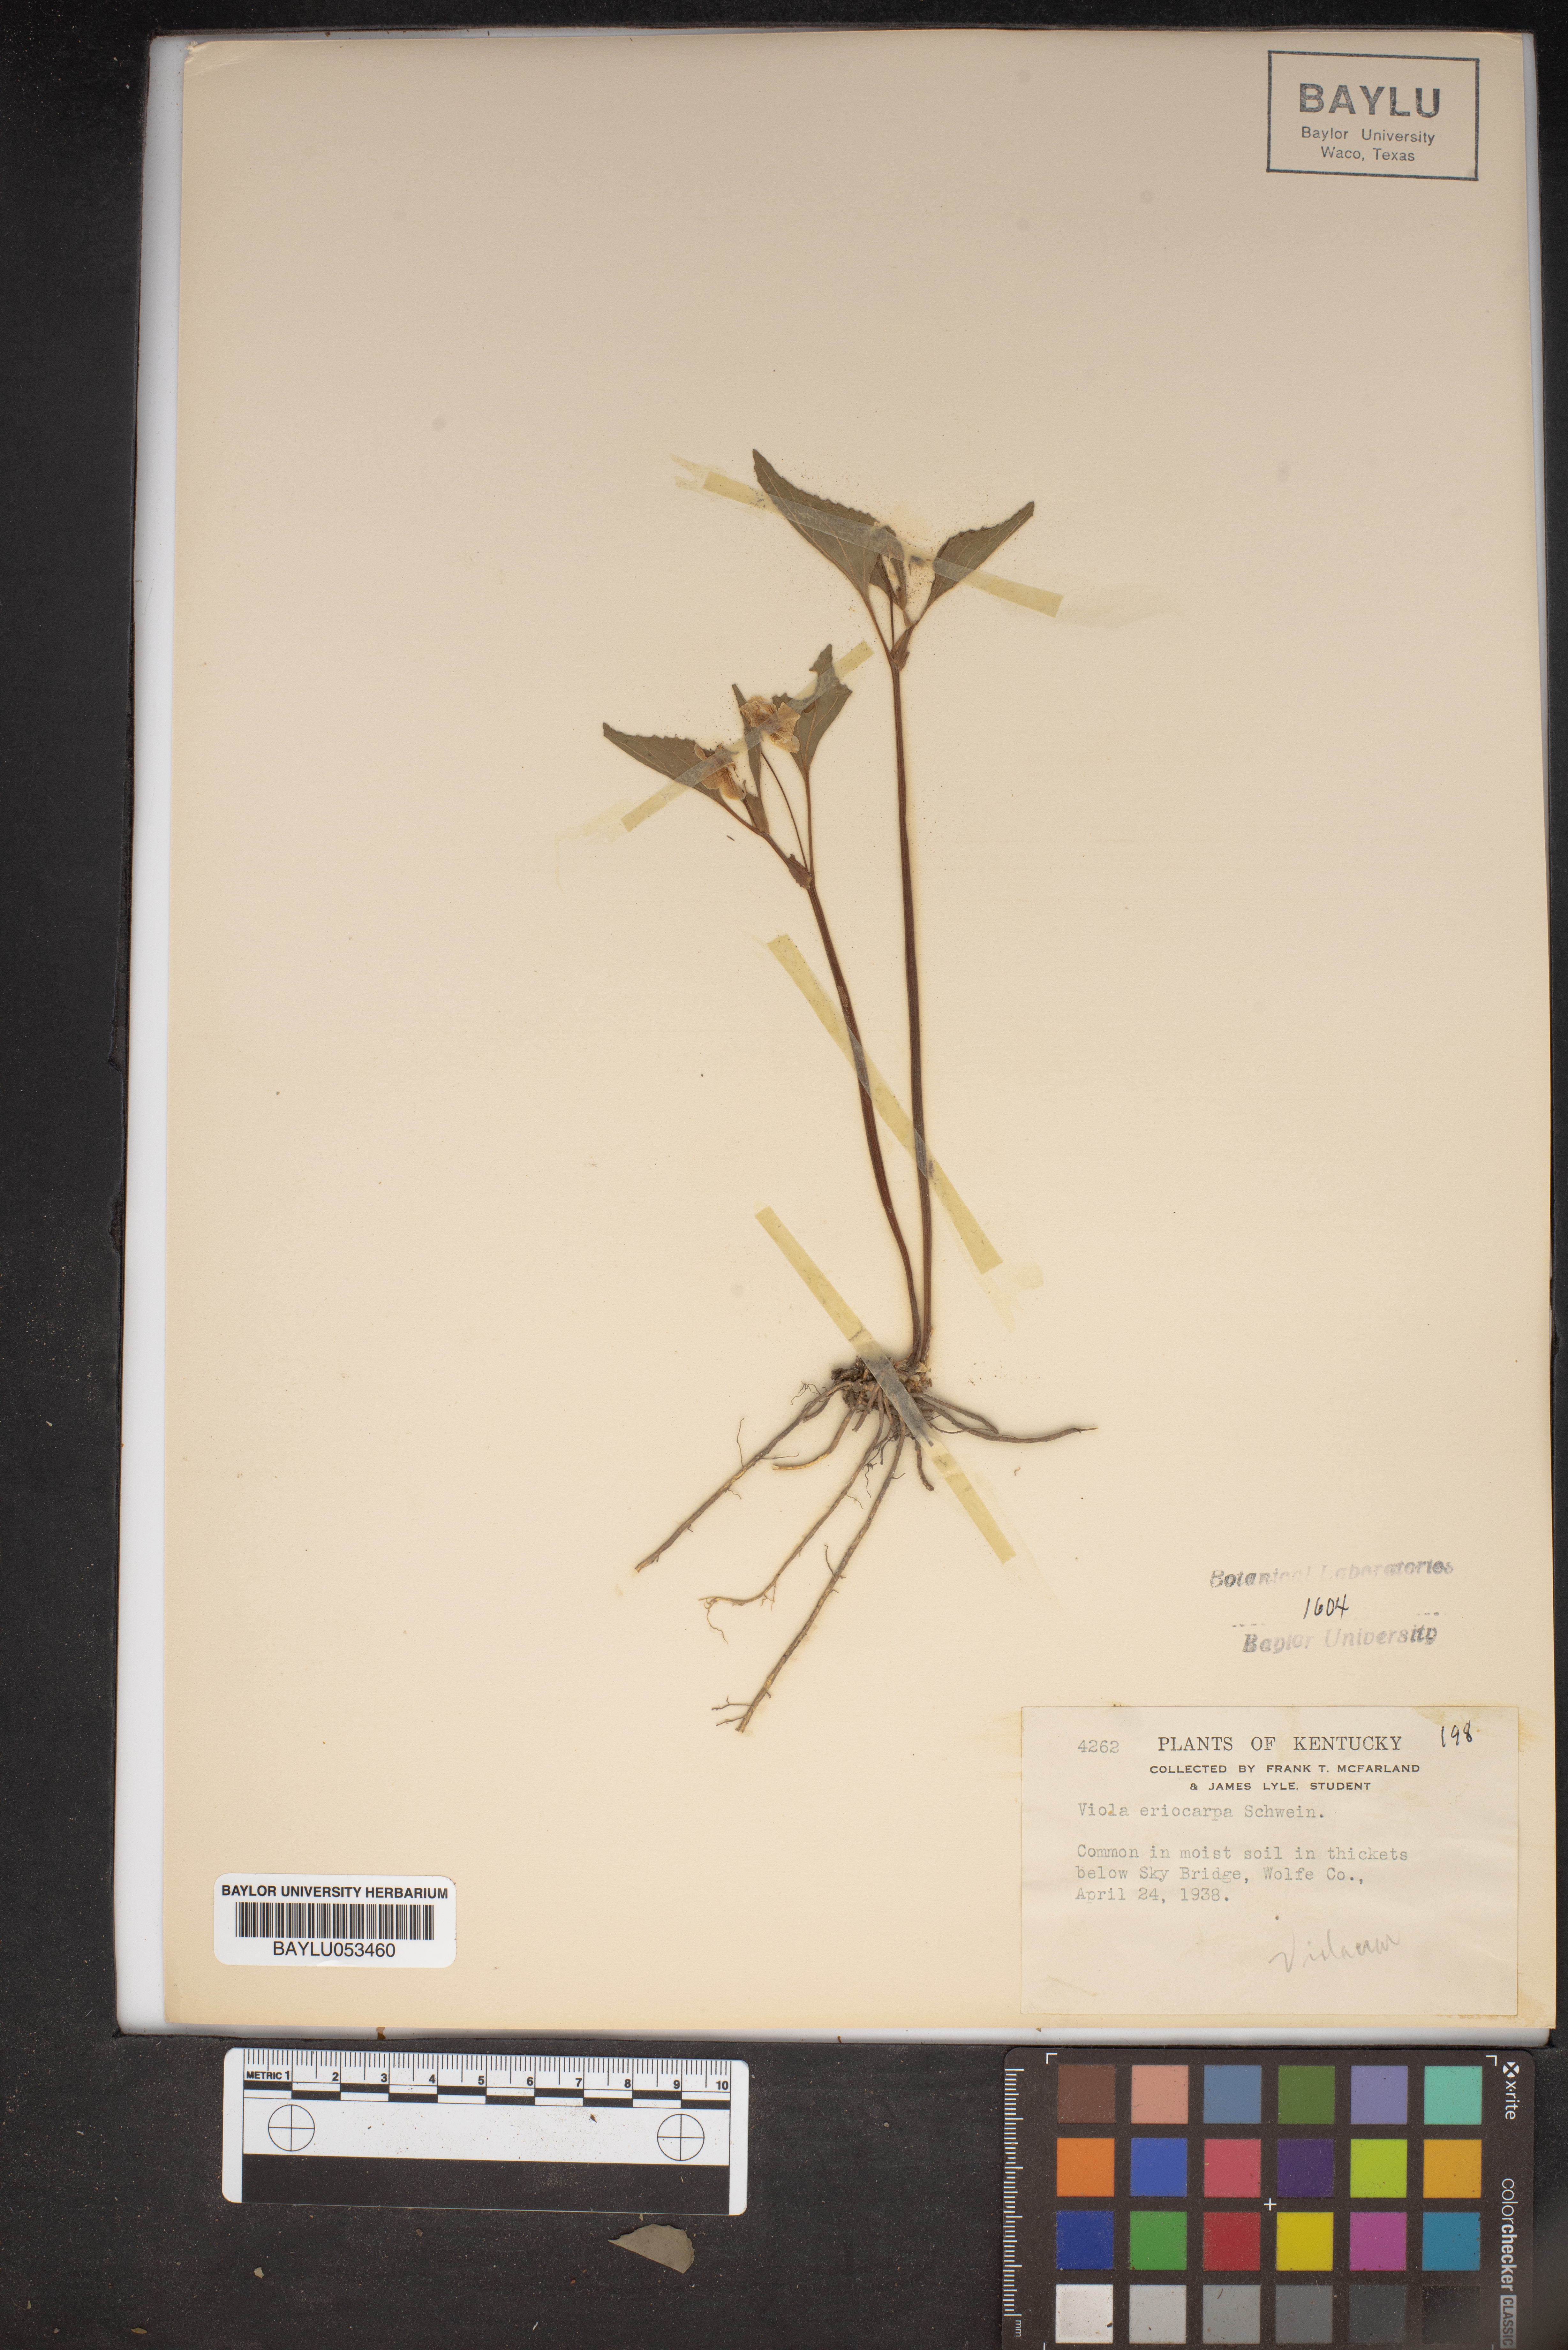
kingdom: Plantae
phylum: Tracheophyta
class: Magnoliopsida
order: Malpighiales
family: Violaceae
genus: Viola
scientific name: Viola eriocarpa
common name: Smooth yellow violet
